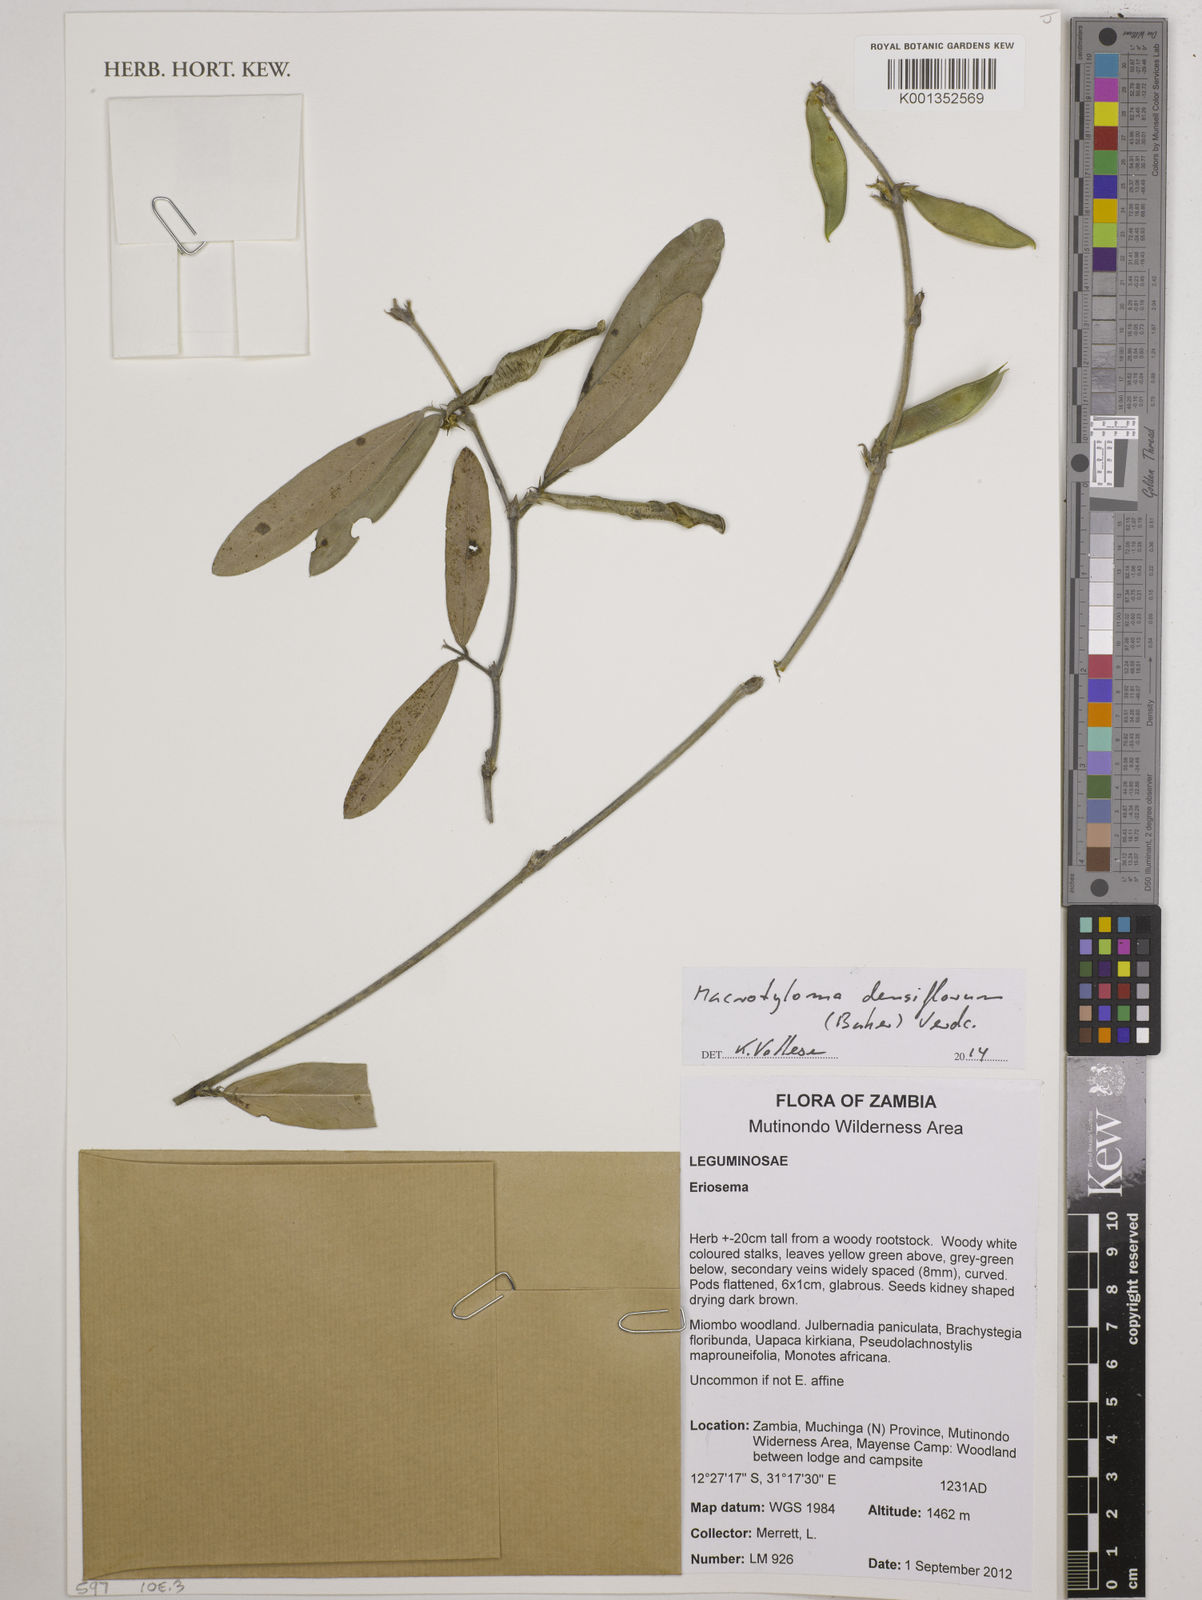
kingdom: Plantae
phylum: Tracheophyta
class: Magnoliopsida
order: Fabales
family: Fabaceae
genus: Macrotyloma
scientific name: Macrotyloma densiflorum
